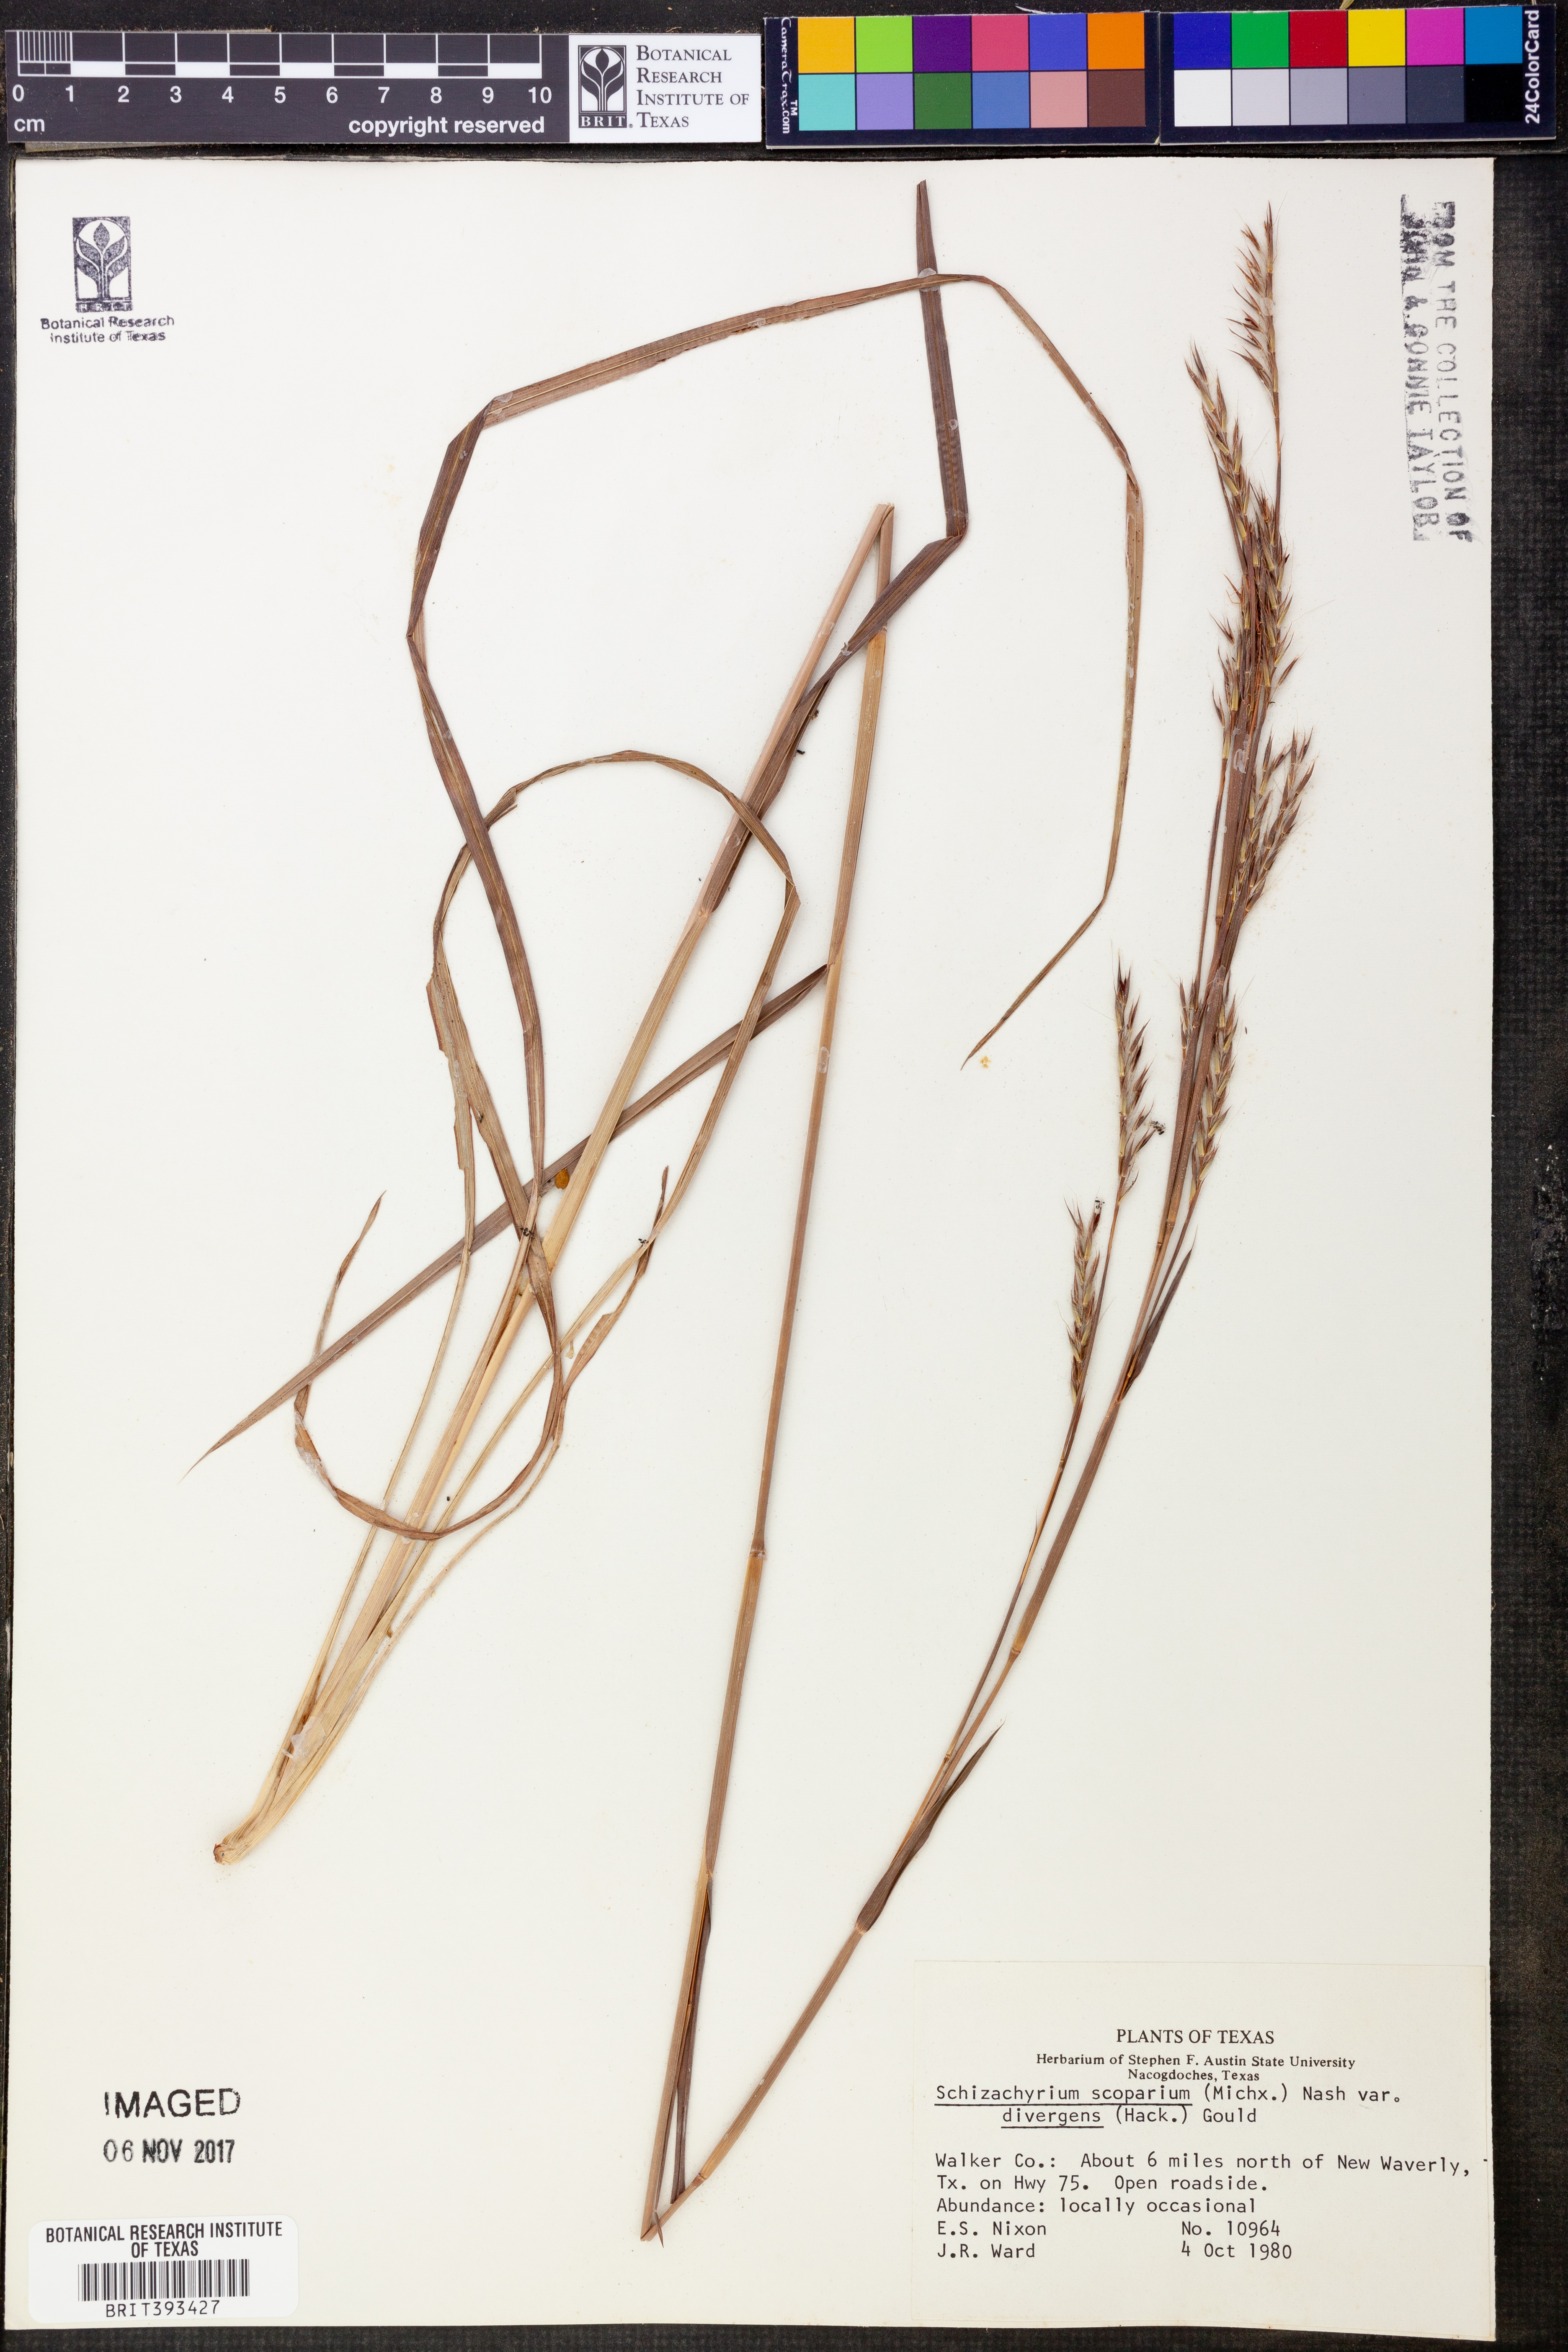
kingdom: Plantae
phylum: Tracheophyta
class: Liliopsida
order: Poales
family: Poaceae
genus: Schizachyrium
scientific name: Schizachyrium scoparium
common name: Little bluestem
